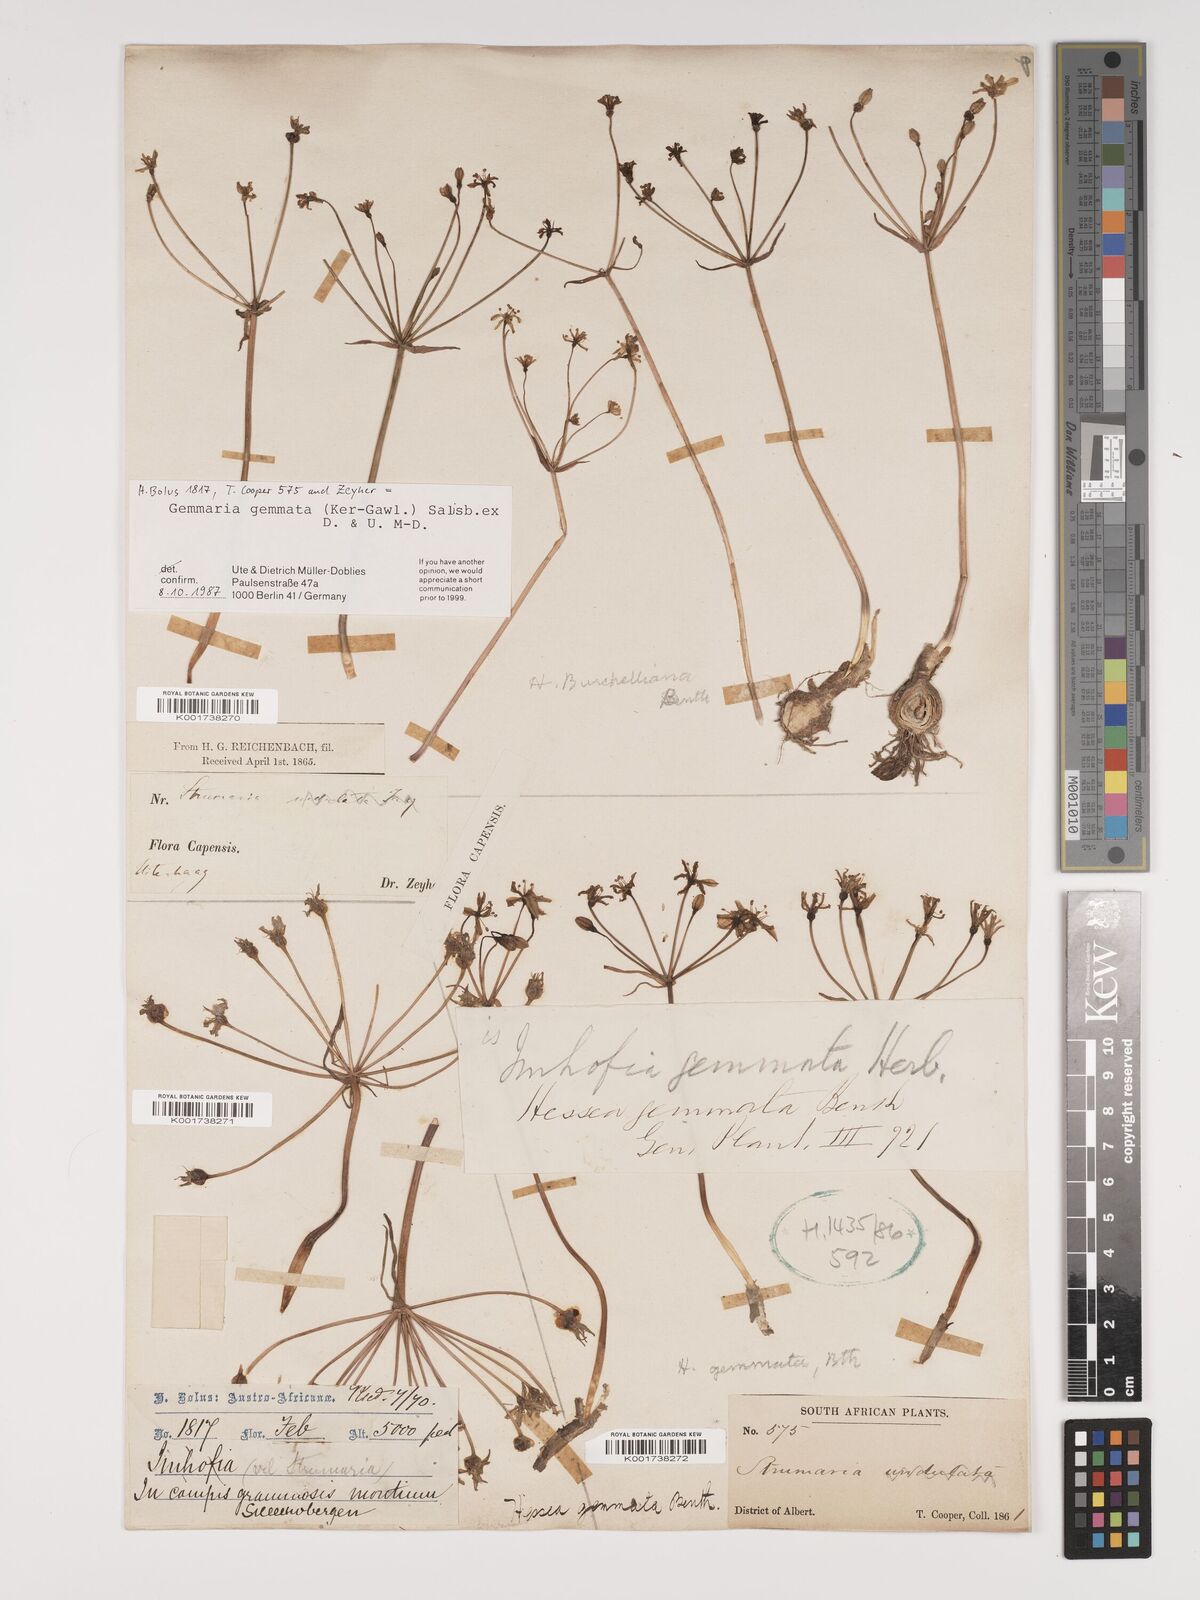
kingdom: Plantae
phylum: Tracheophyta
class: Liliopsida
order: Asparagales
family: Amaryllidaceae
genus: Strumaria
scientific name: Strumaria gemmata
